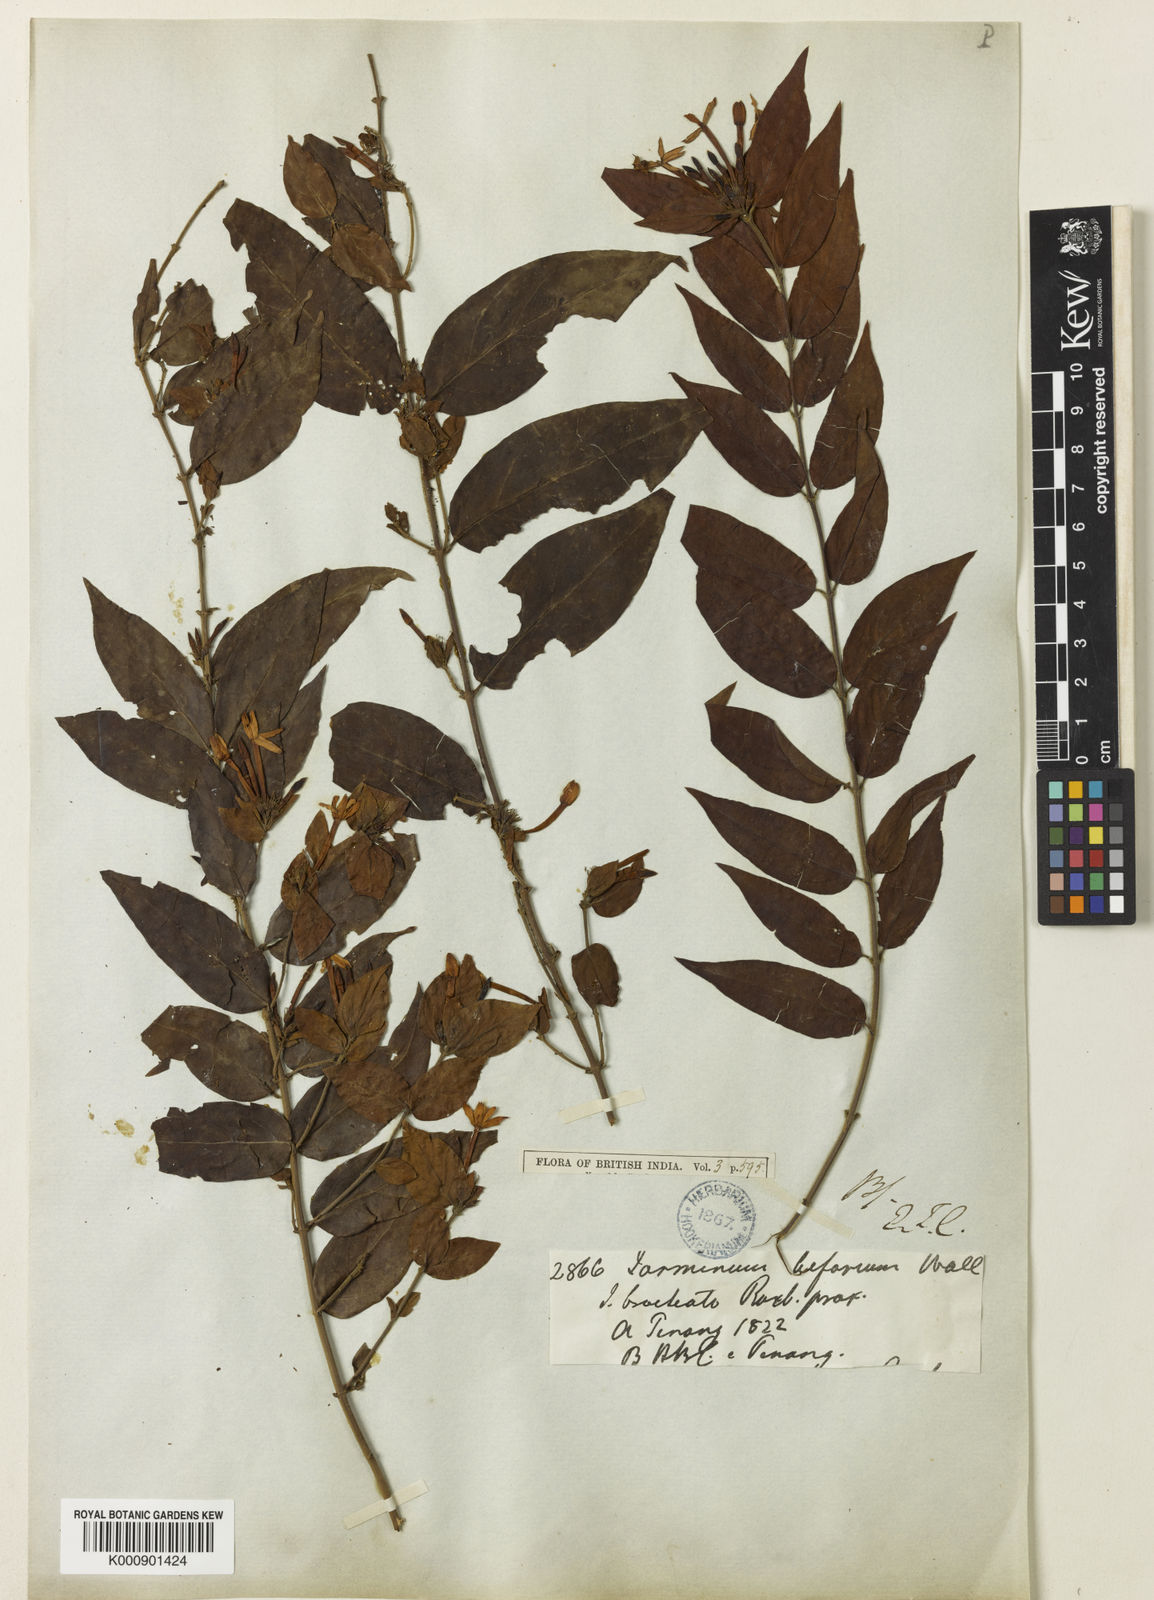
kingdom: Plantae
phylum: Tracheophyta
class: Magnoliopsida
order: Lamiales
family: Oleaceae
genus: Jasminum
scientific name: Jasminum elongatum
